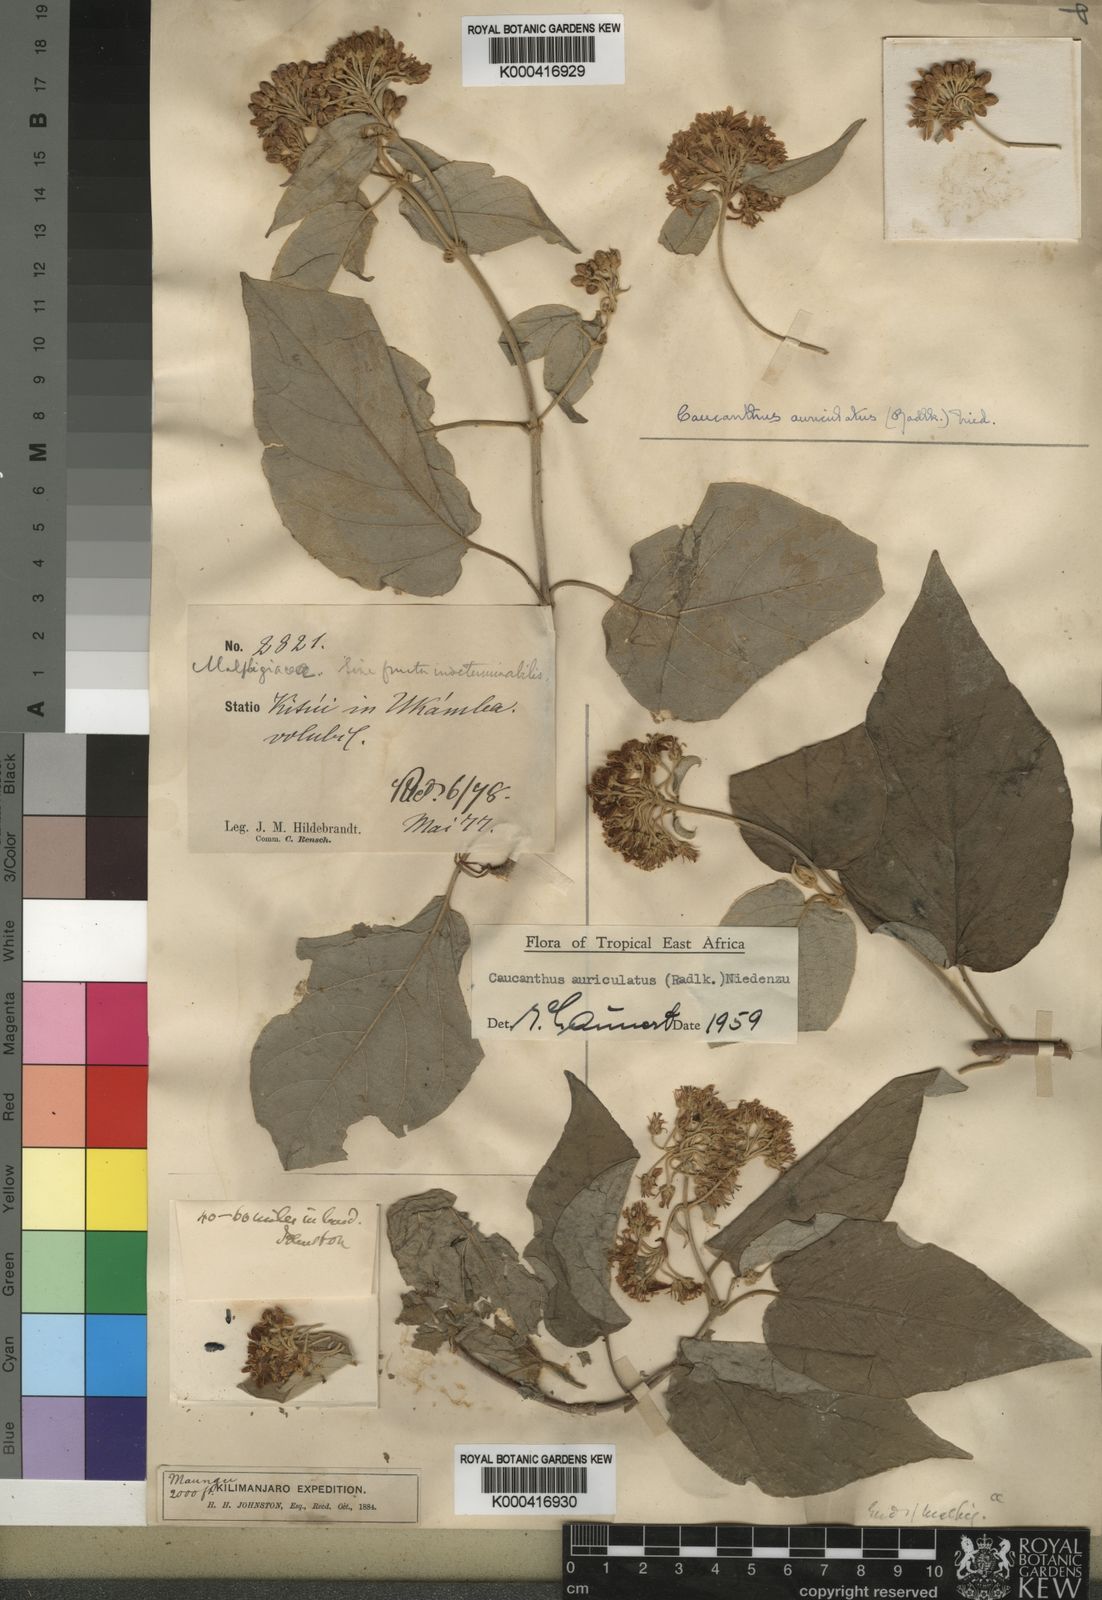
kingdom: Plantae
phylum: Tracheophyta
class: Magnoliopsida
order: Malpighiales
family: Malpighiaceae
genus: Caucanthus
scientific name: Caucanthus auriculatus
